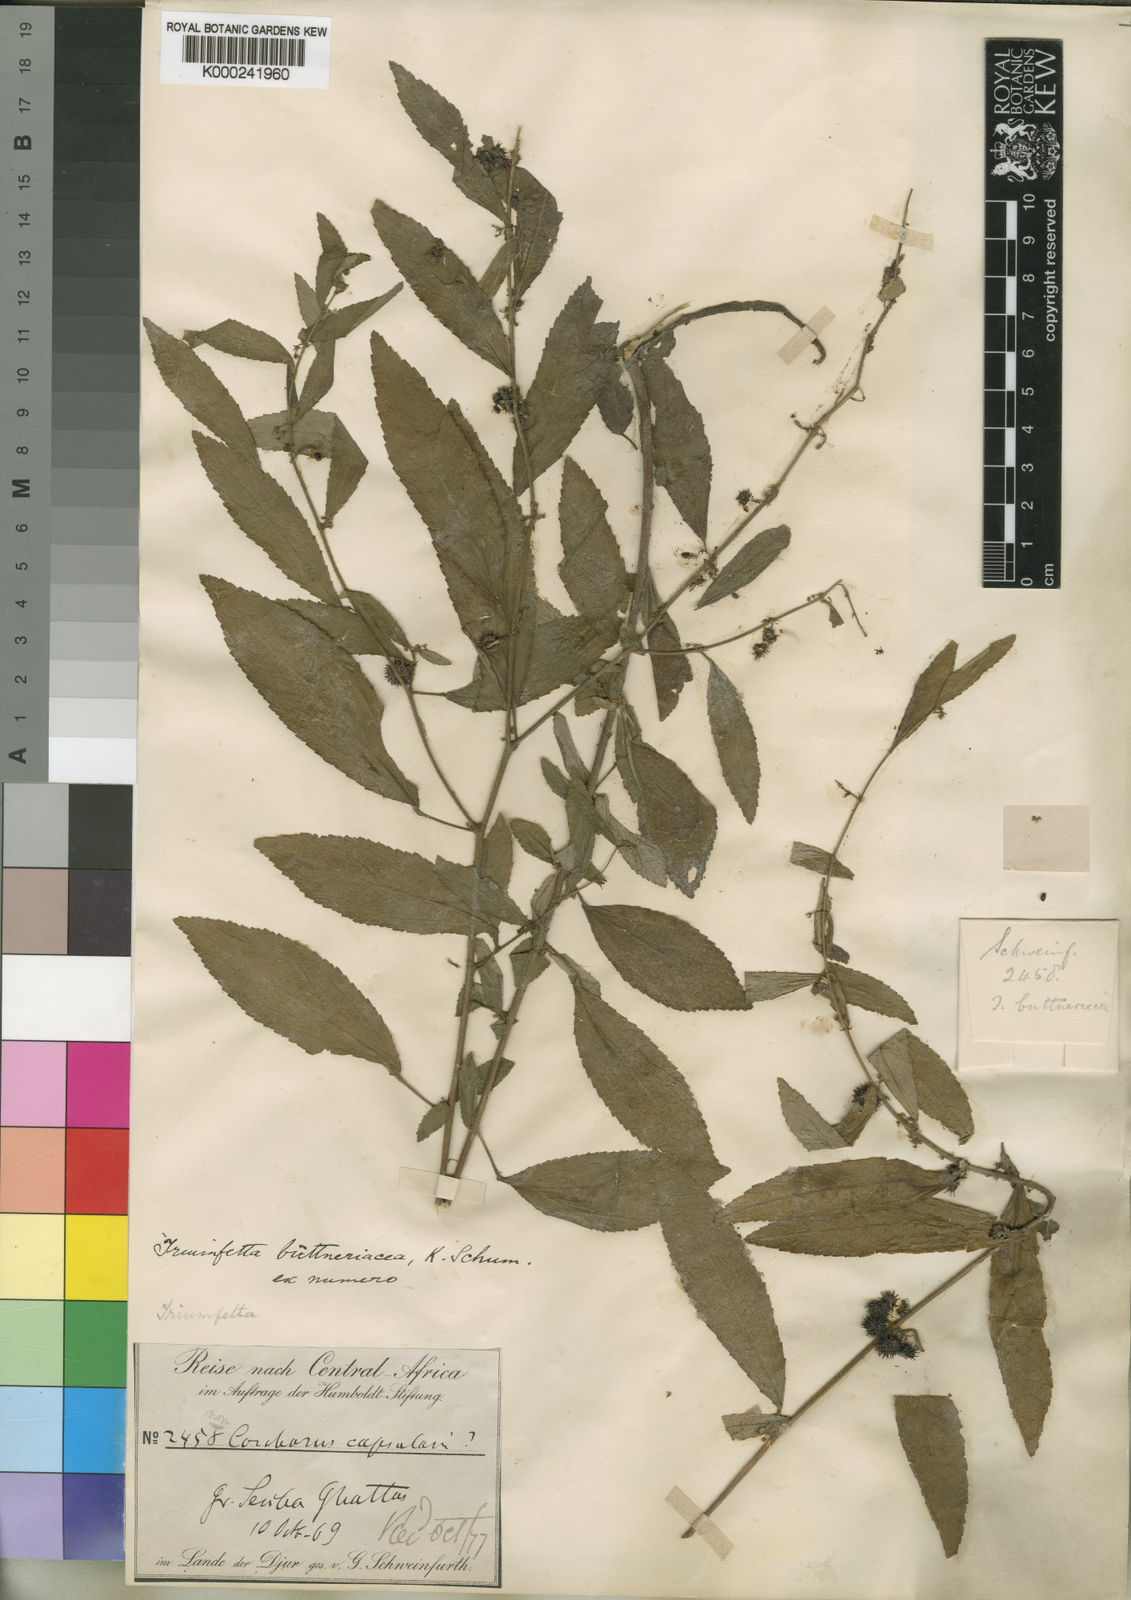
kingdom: Plantae
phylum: Tracheophyta
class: Magnoliopsida
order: Malvales
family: Malvaceae
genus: Triumfetta
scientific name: Triumfetta
